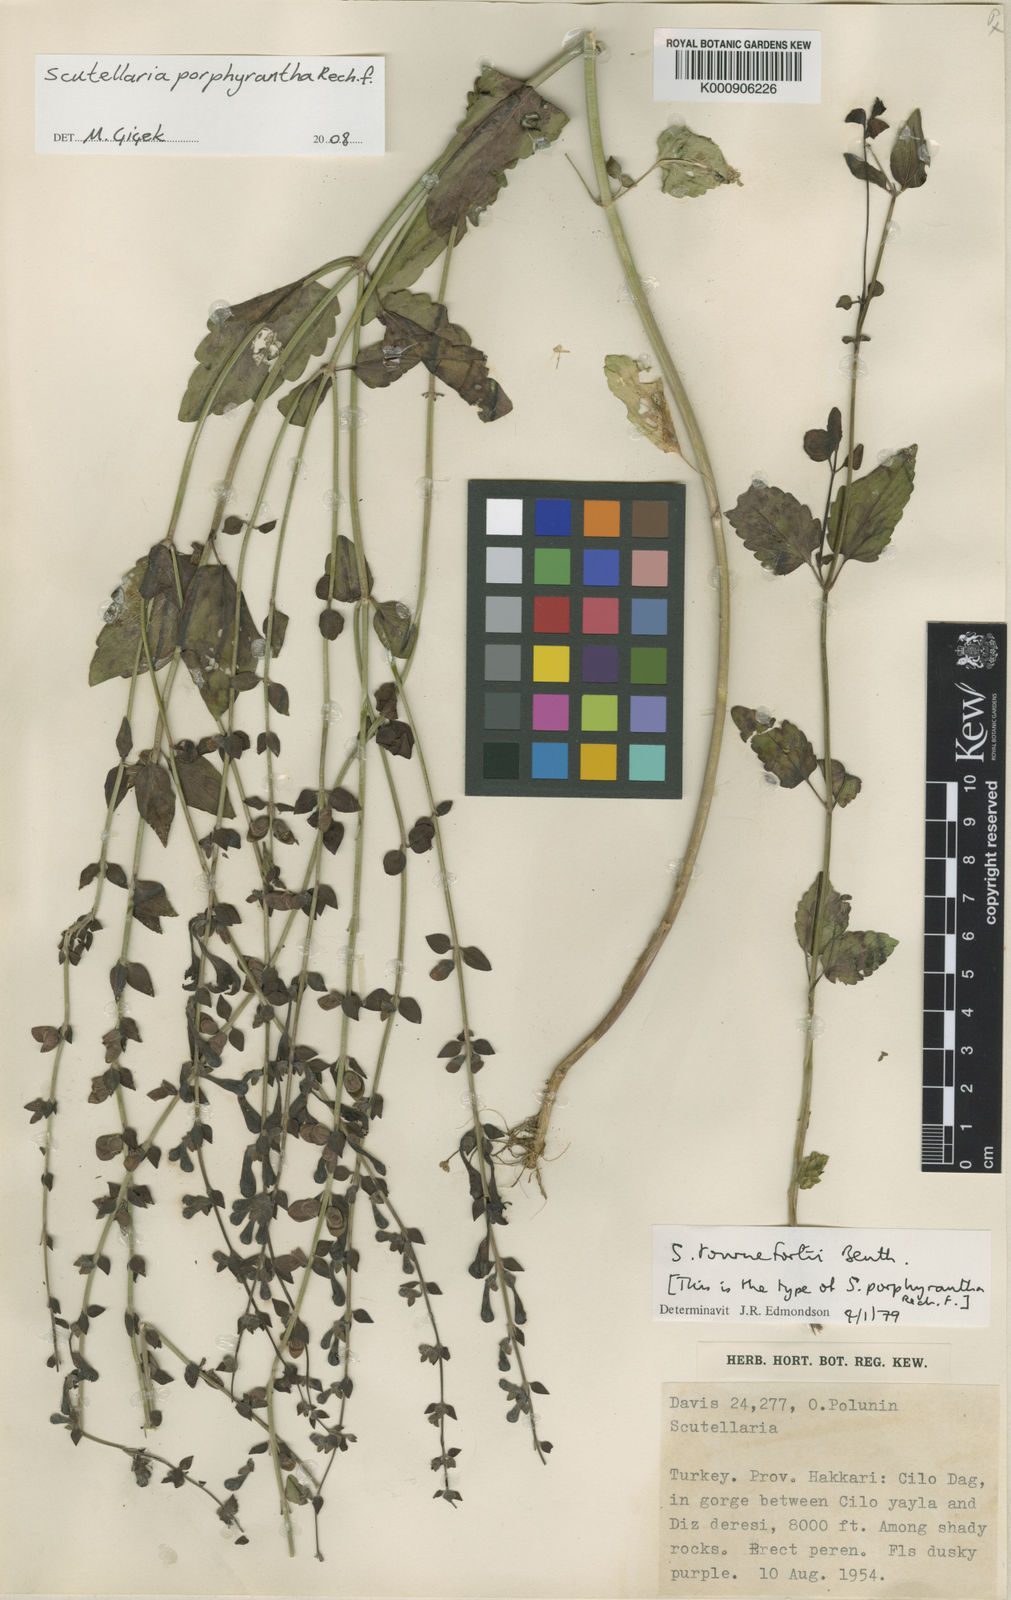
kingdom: Plantae
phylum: Tracheophyta
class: Magnoliopsida
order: Lamiales
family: Lamiaceae
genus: Scutellaria
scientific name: Scutellaria tournefortii
